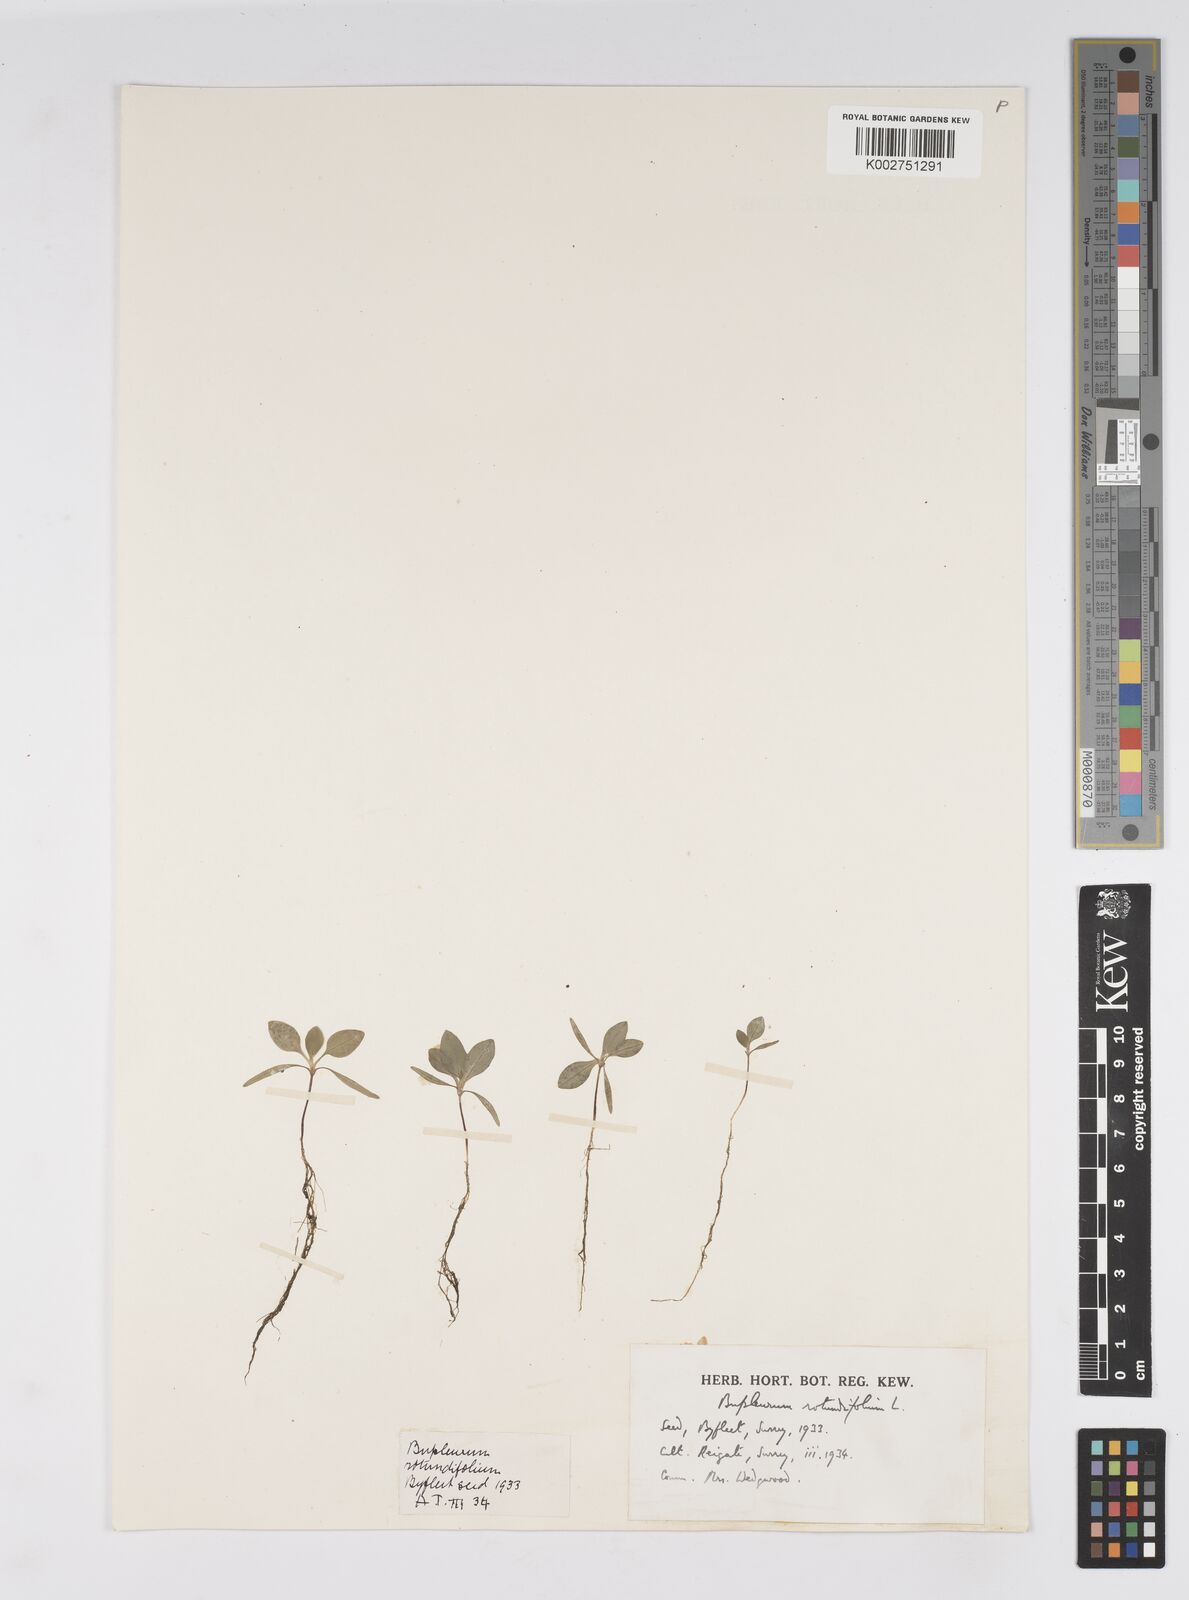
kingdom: Plantae
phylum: Tracheophyta
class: Magnoliopsida
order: Apiales
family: Apiaceae
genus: Bupleurum
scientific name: Bupleurum rotundifolium
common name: Thorow-wax
